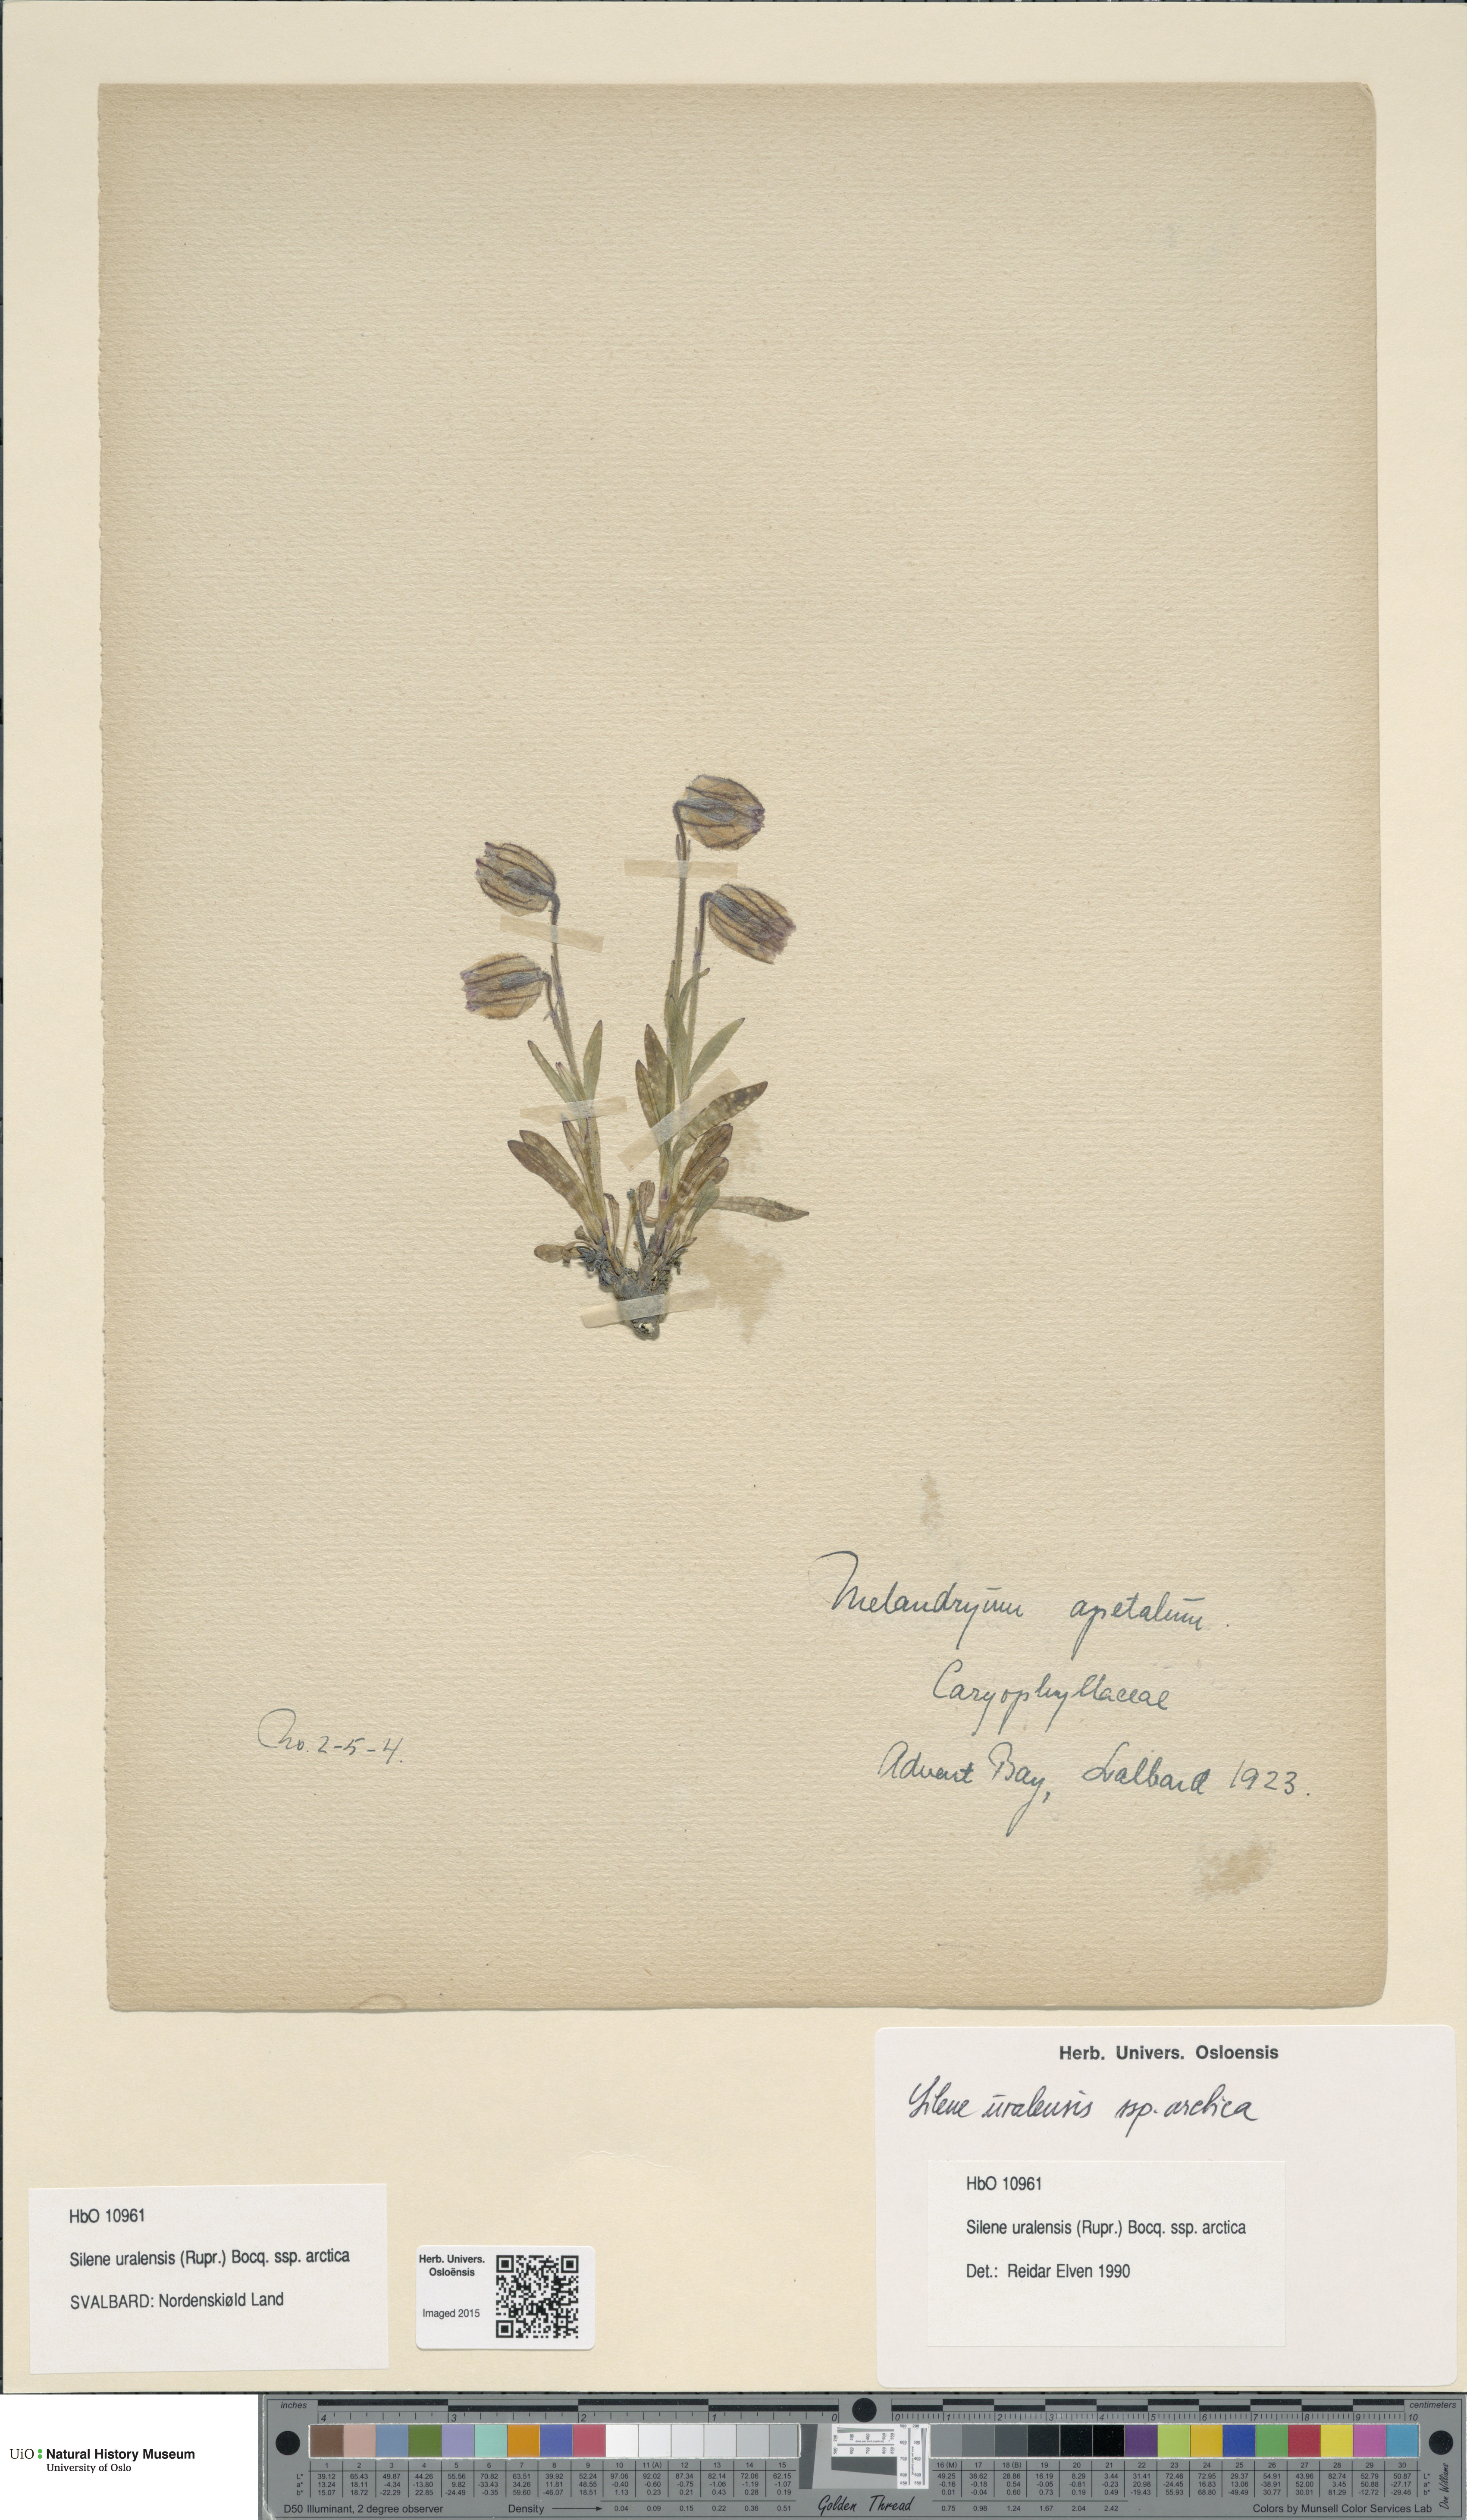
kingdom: Plantae
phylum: Tracheophyta
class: Magnoliopsida
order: Caryophyllales
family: Caryophyllaceae
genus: Silene
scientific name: Silene uralensis
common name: Nodding campion
